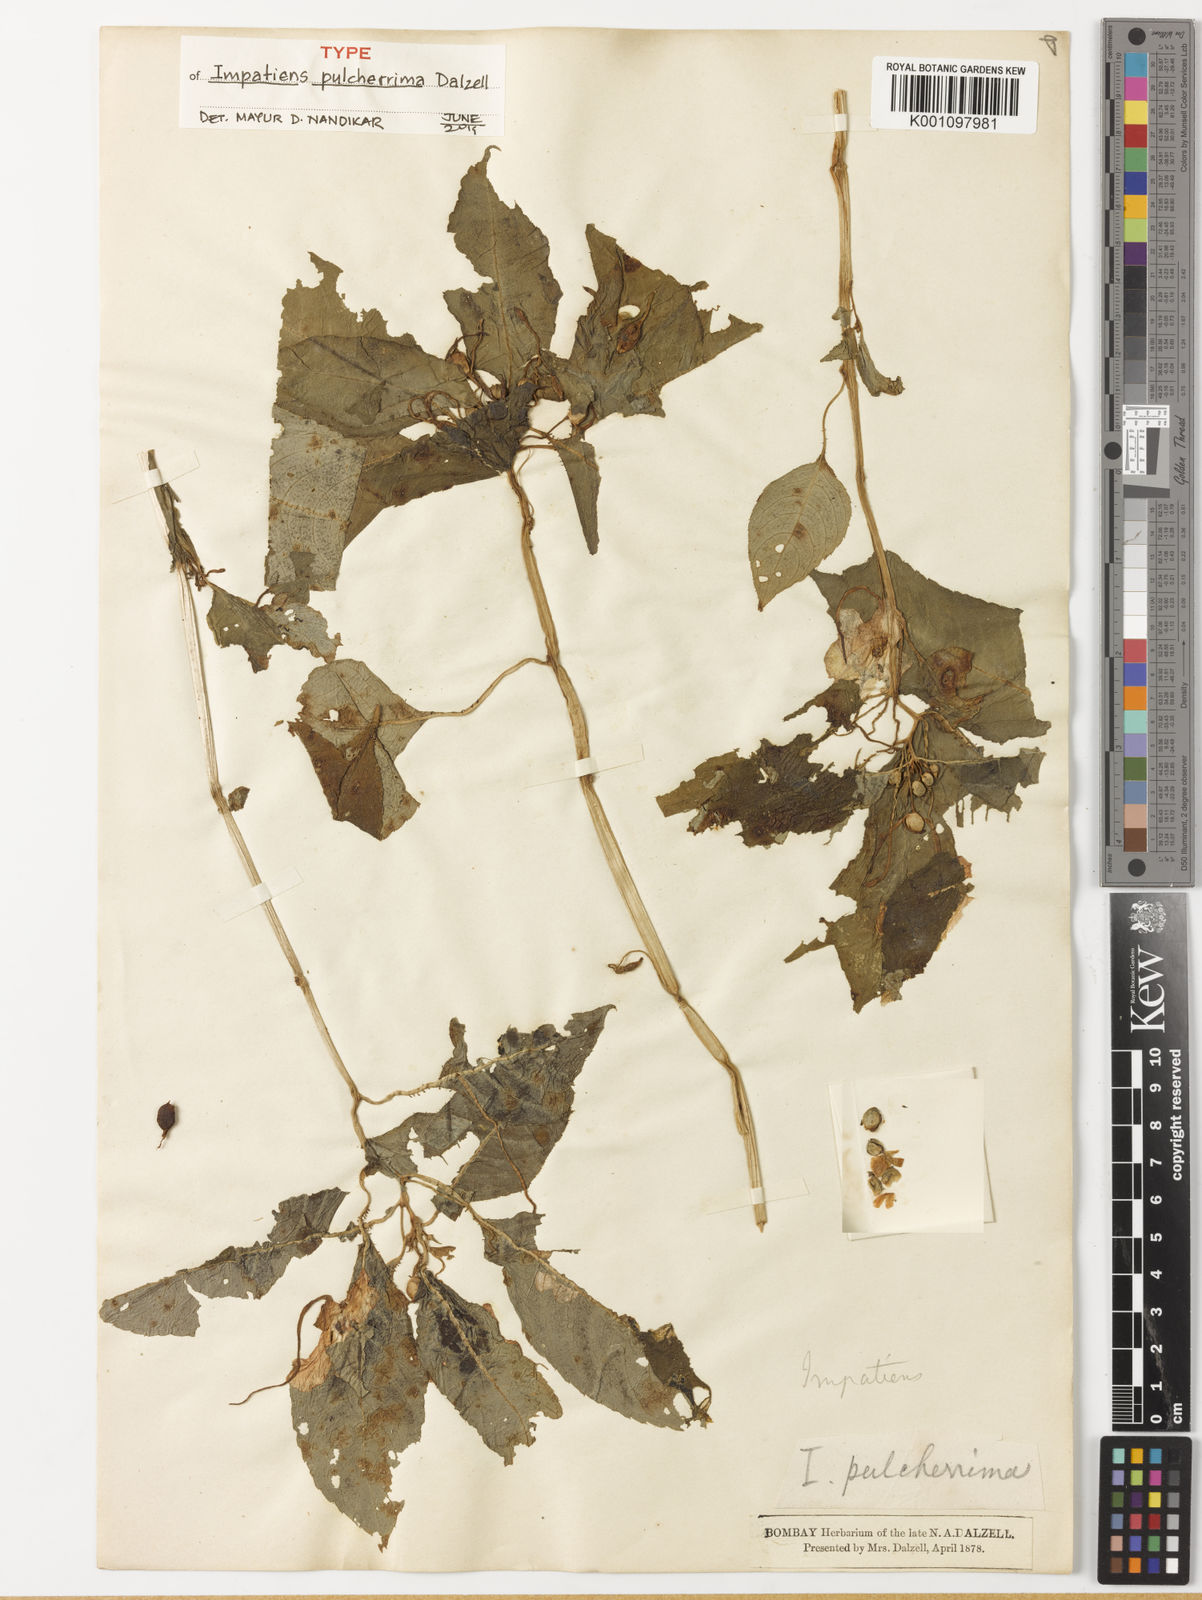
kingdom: Plantae
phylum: Tracheophyta
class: Magnoliopsida
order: Ericales
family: Balsaminaceae
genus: Impatiens
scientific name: Impatiens pulcherrima
